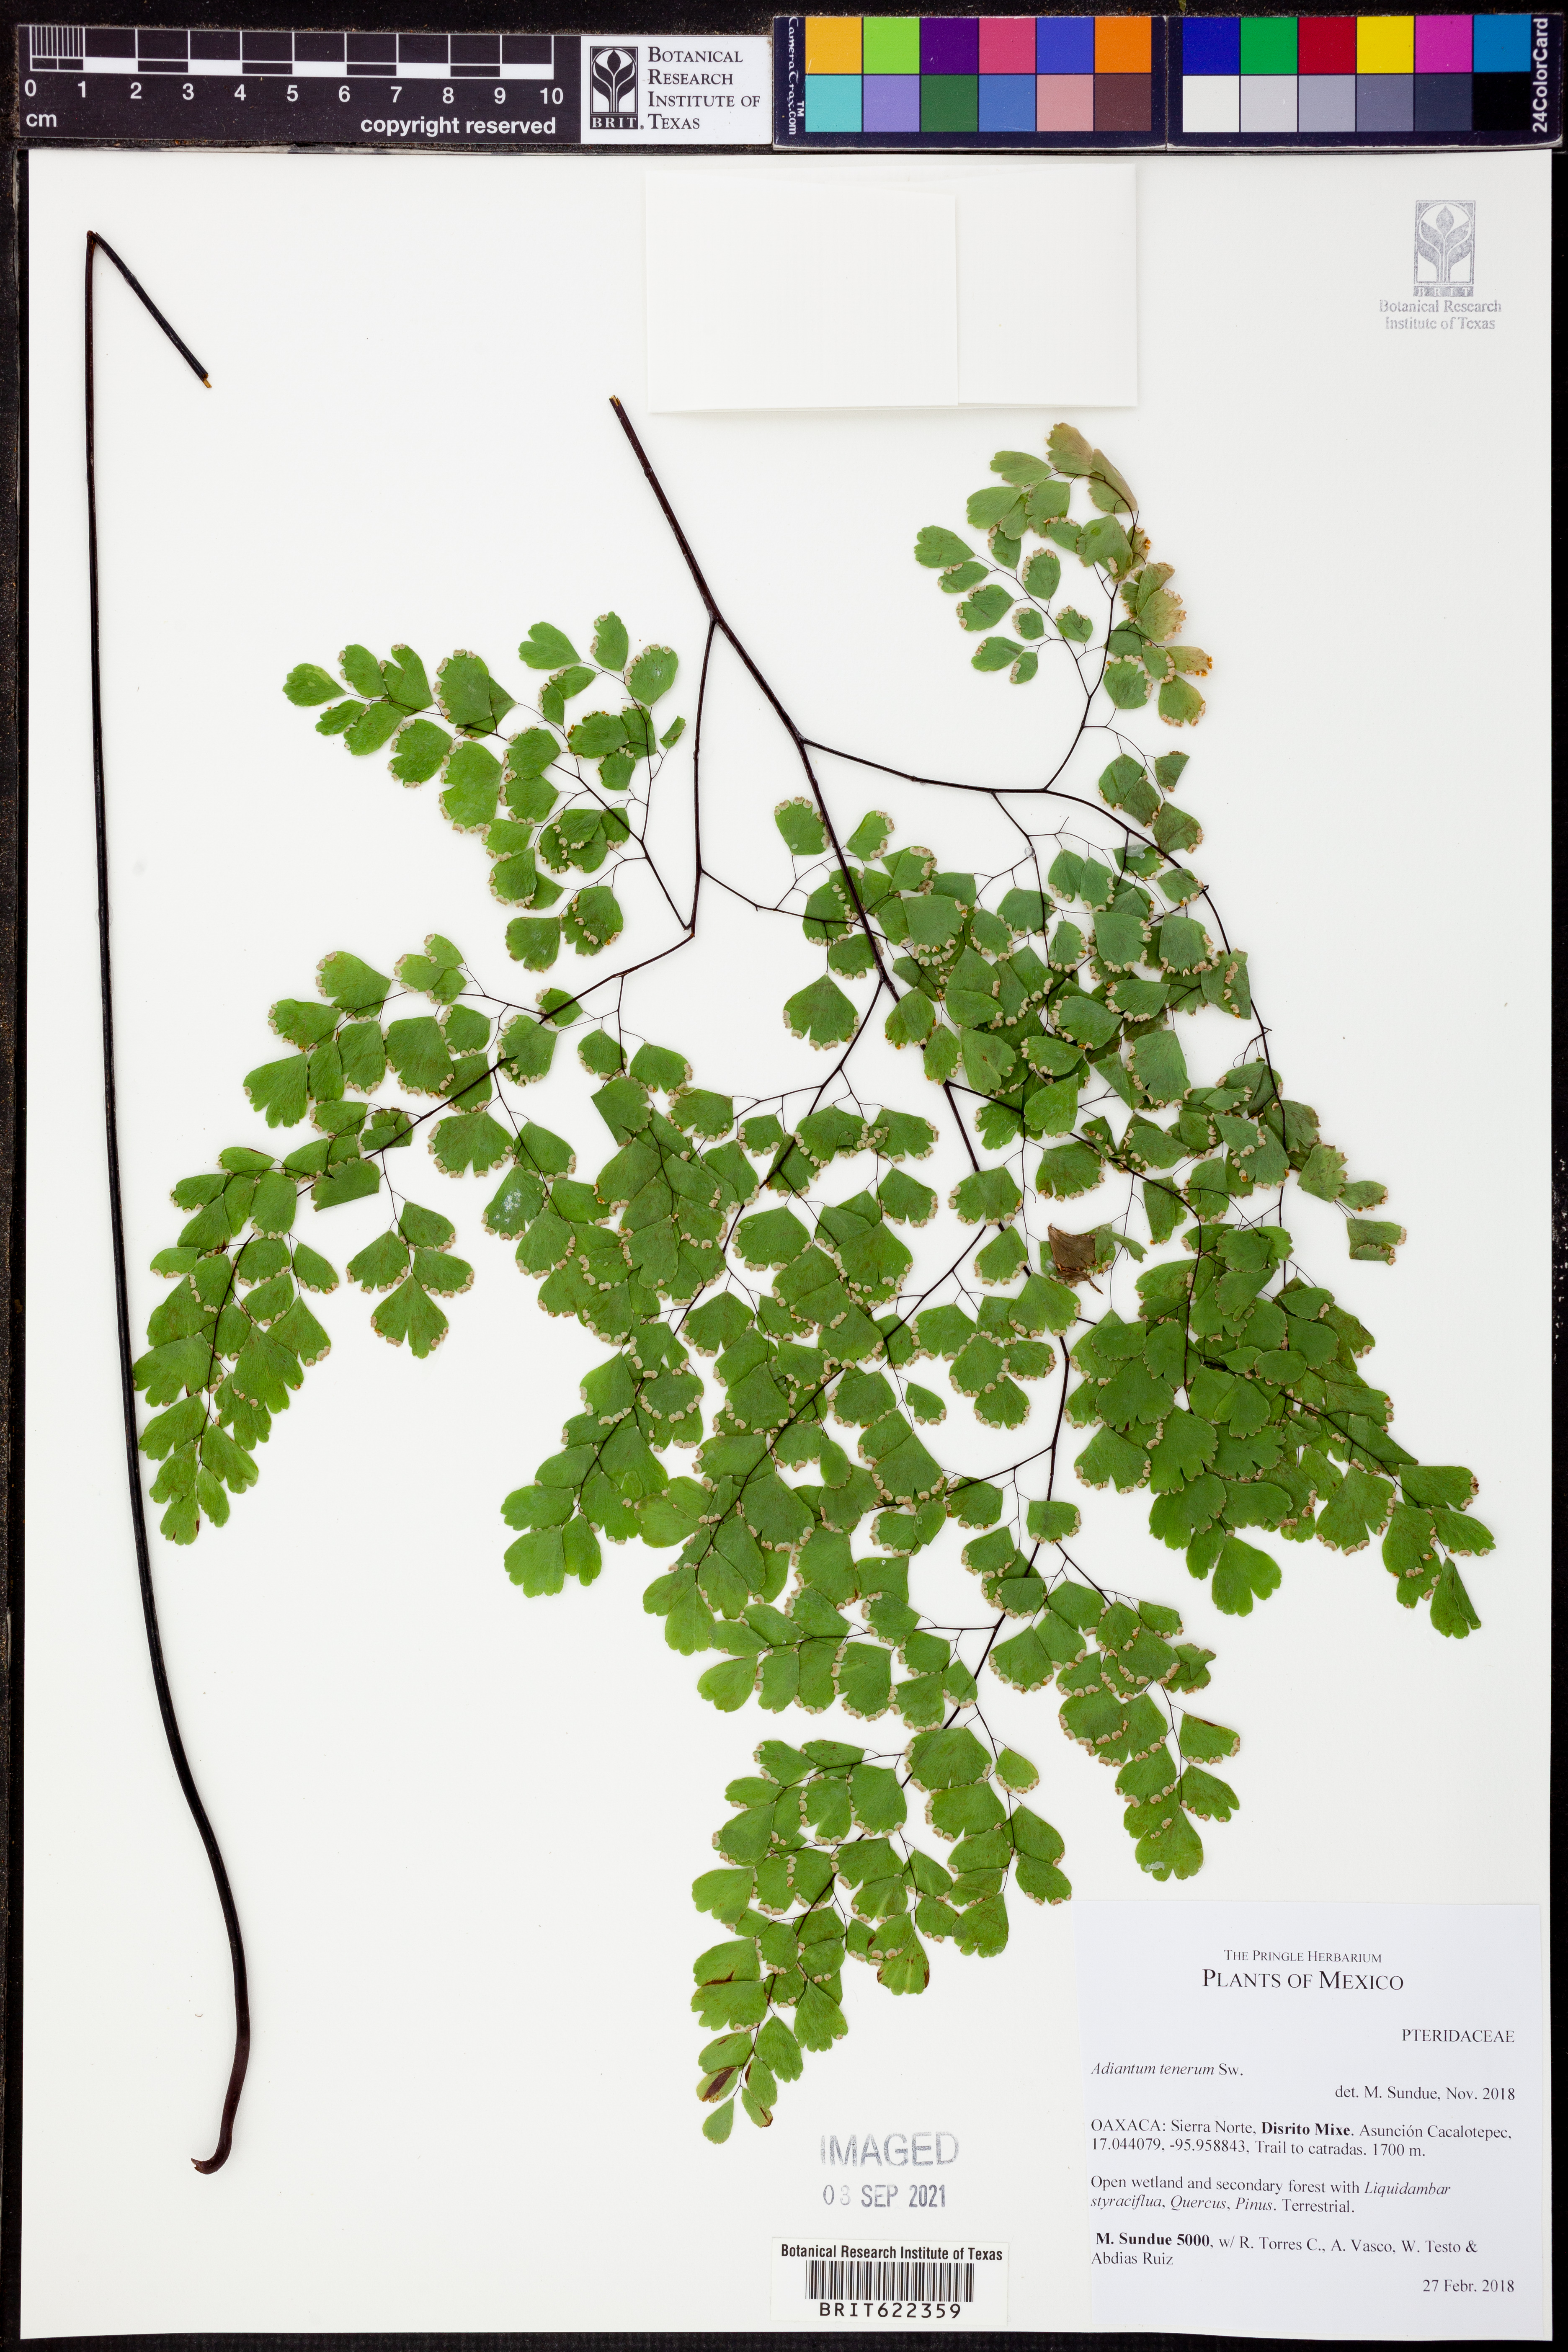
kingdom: Plantae
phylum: Tracheophyta
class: Polypodiopsida
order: Polypodiales
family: Pteridaceae
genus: Adiantum
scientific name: Adiantum tenerum
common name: Fan maidenhair
